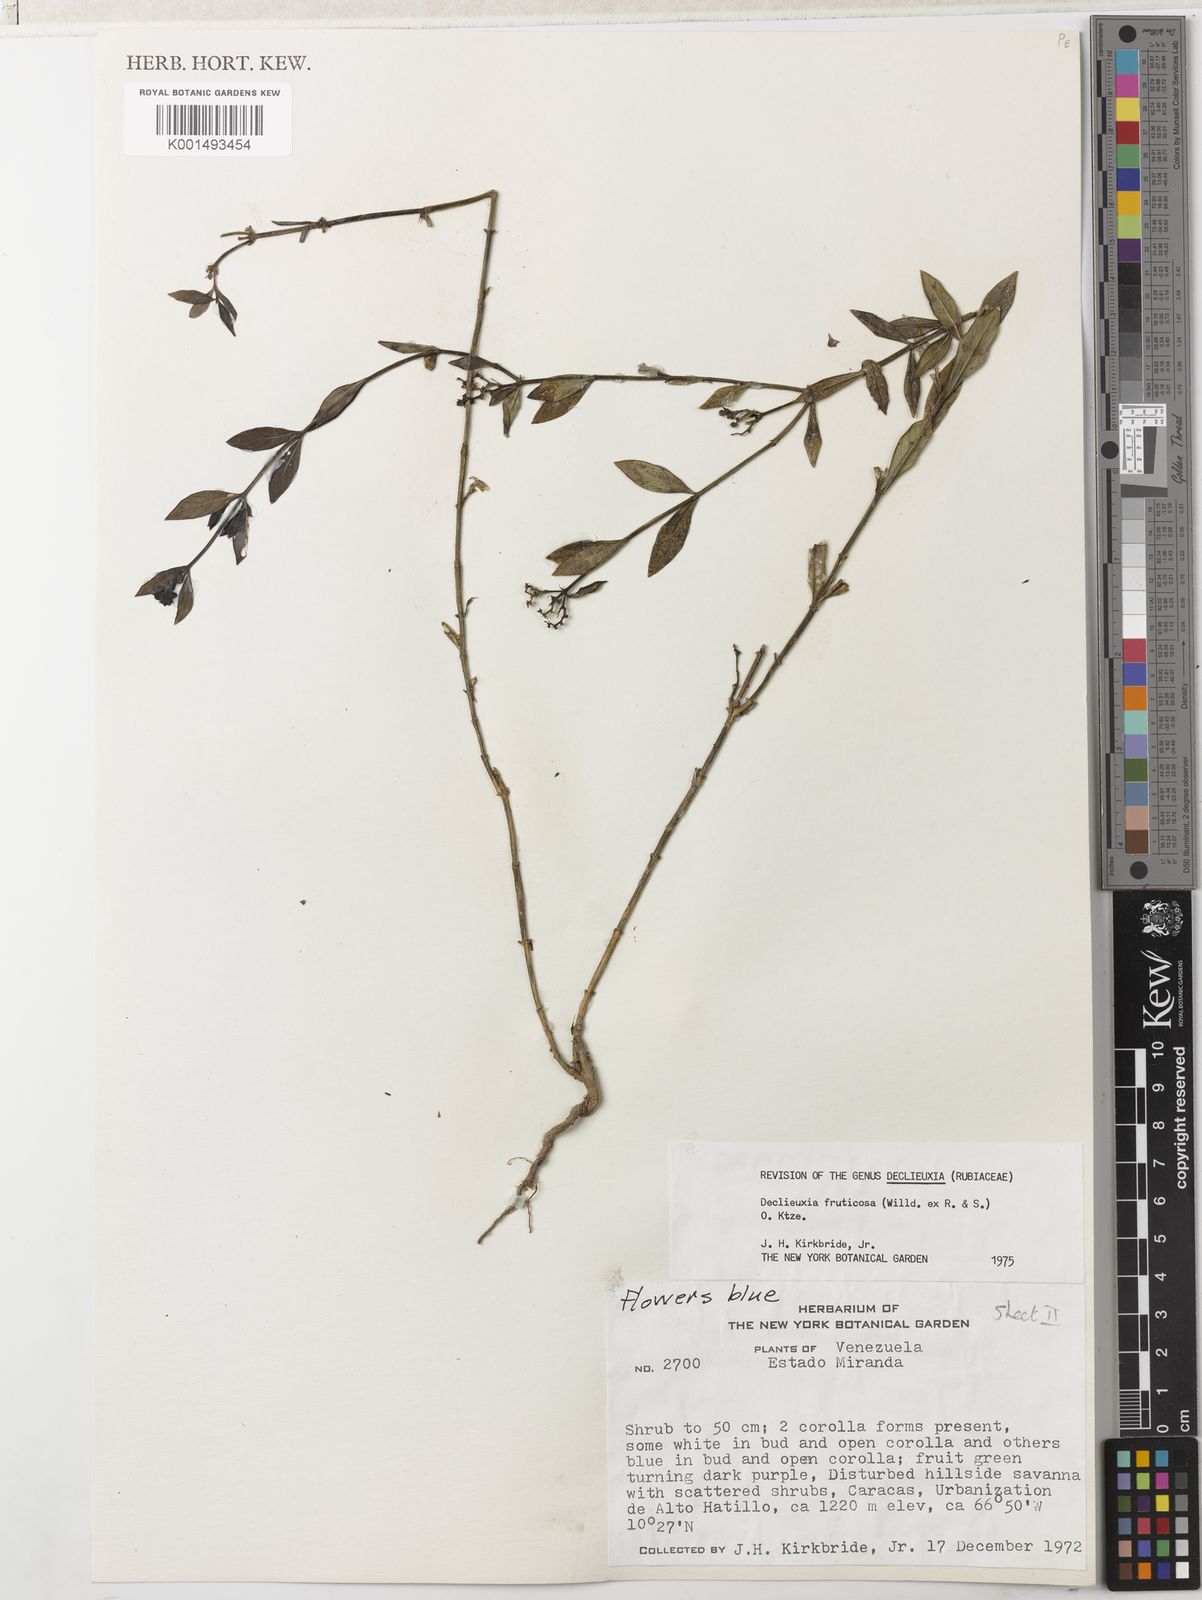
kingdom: Plantae
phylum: Tracheophyta
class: Magnoliopsida
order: Gentianales
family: Rubiaceae
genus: Declieuxia
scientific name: Declieuxia fruticosa
